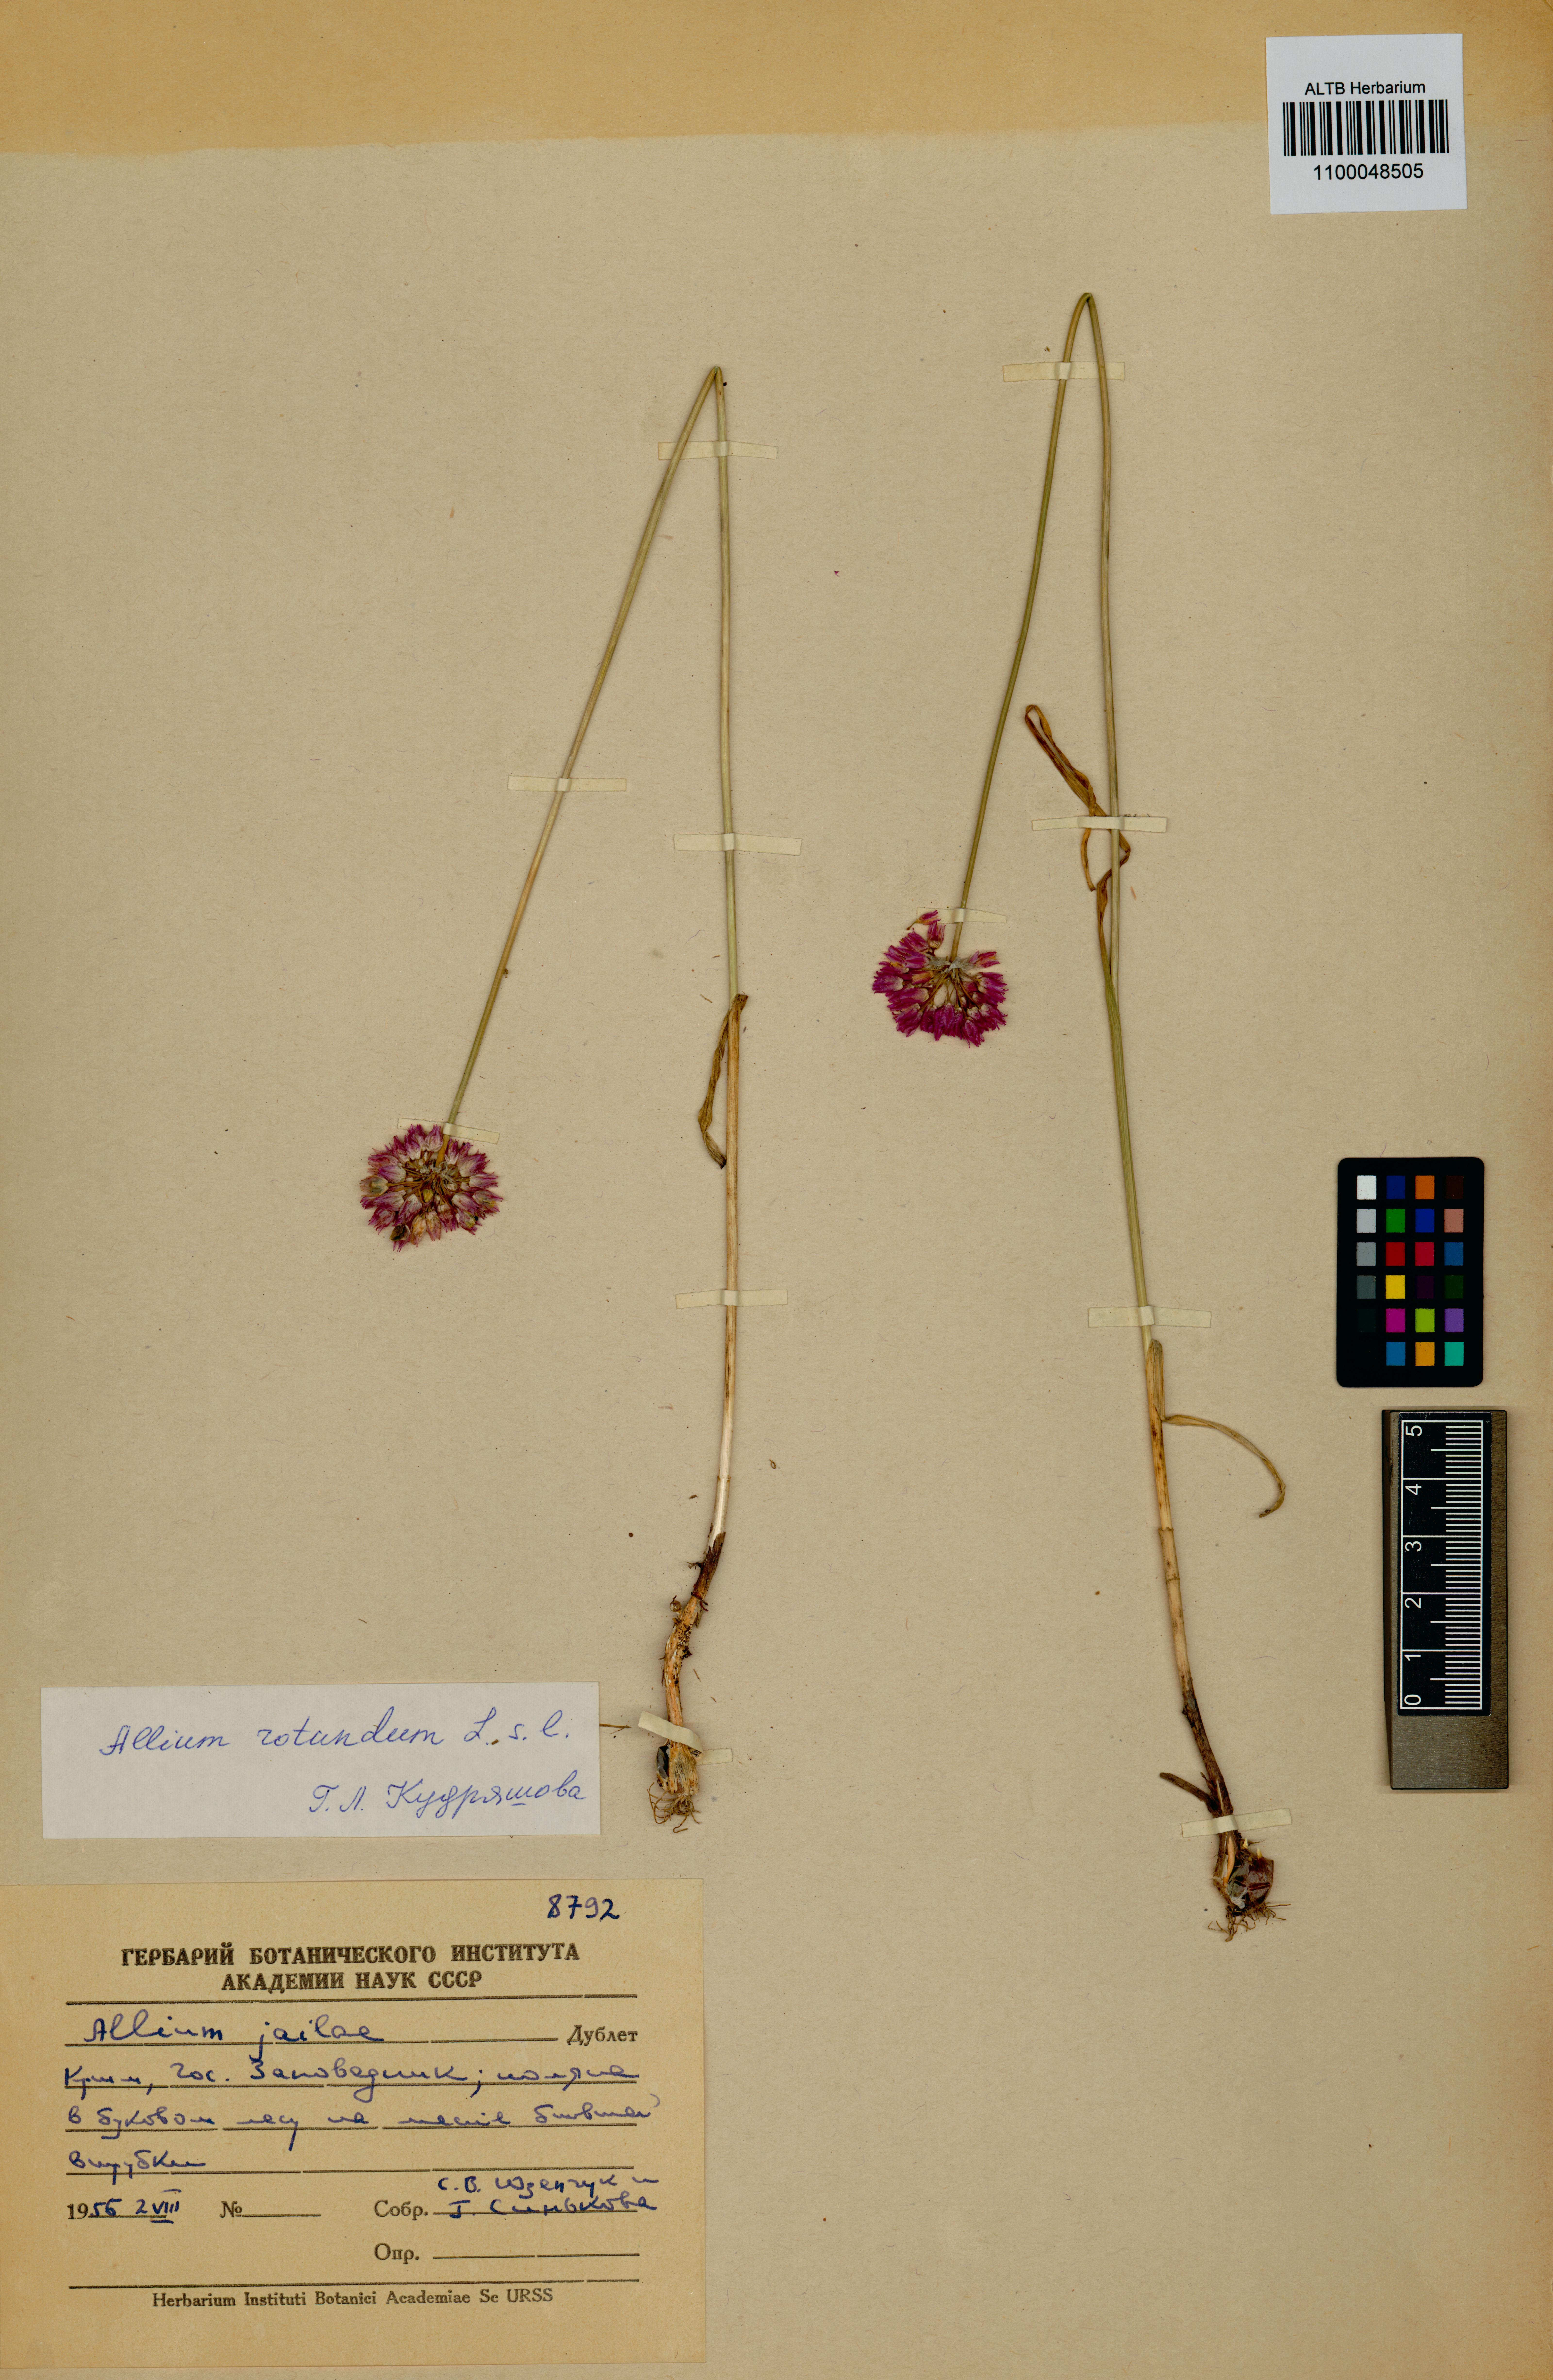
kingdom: Plantae
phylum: Tracheophyta
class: Liliopsida
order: Asparagales
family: Amaryllidaceae
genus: Allium
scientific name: Allium rotundum
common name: Sand leek
